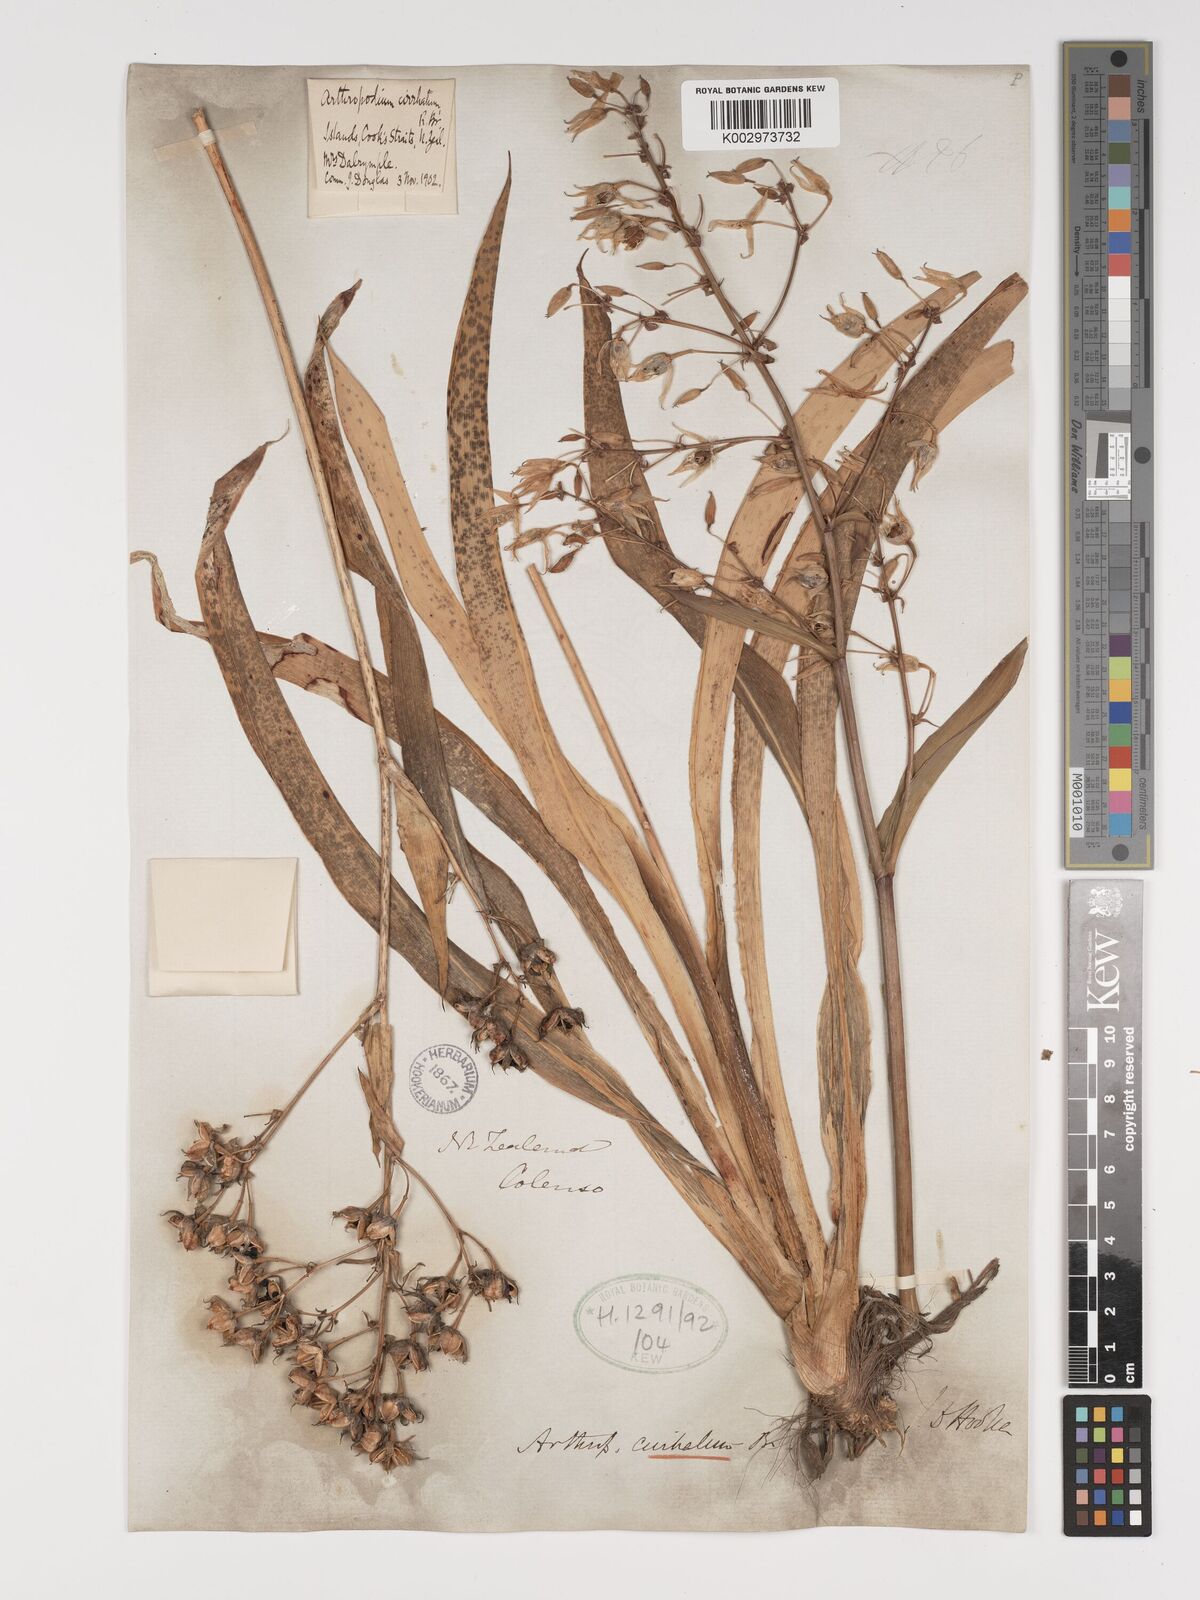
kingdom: Plantae
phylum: Tracheophyta
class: Liliopsida
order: Asparagales
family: Asparagaceae
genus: Arthropodium
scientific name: Arthropodium cirratum
